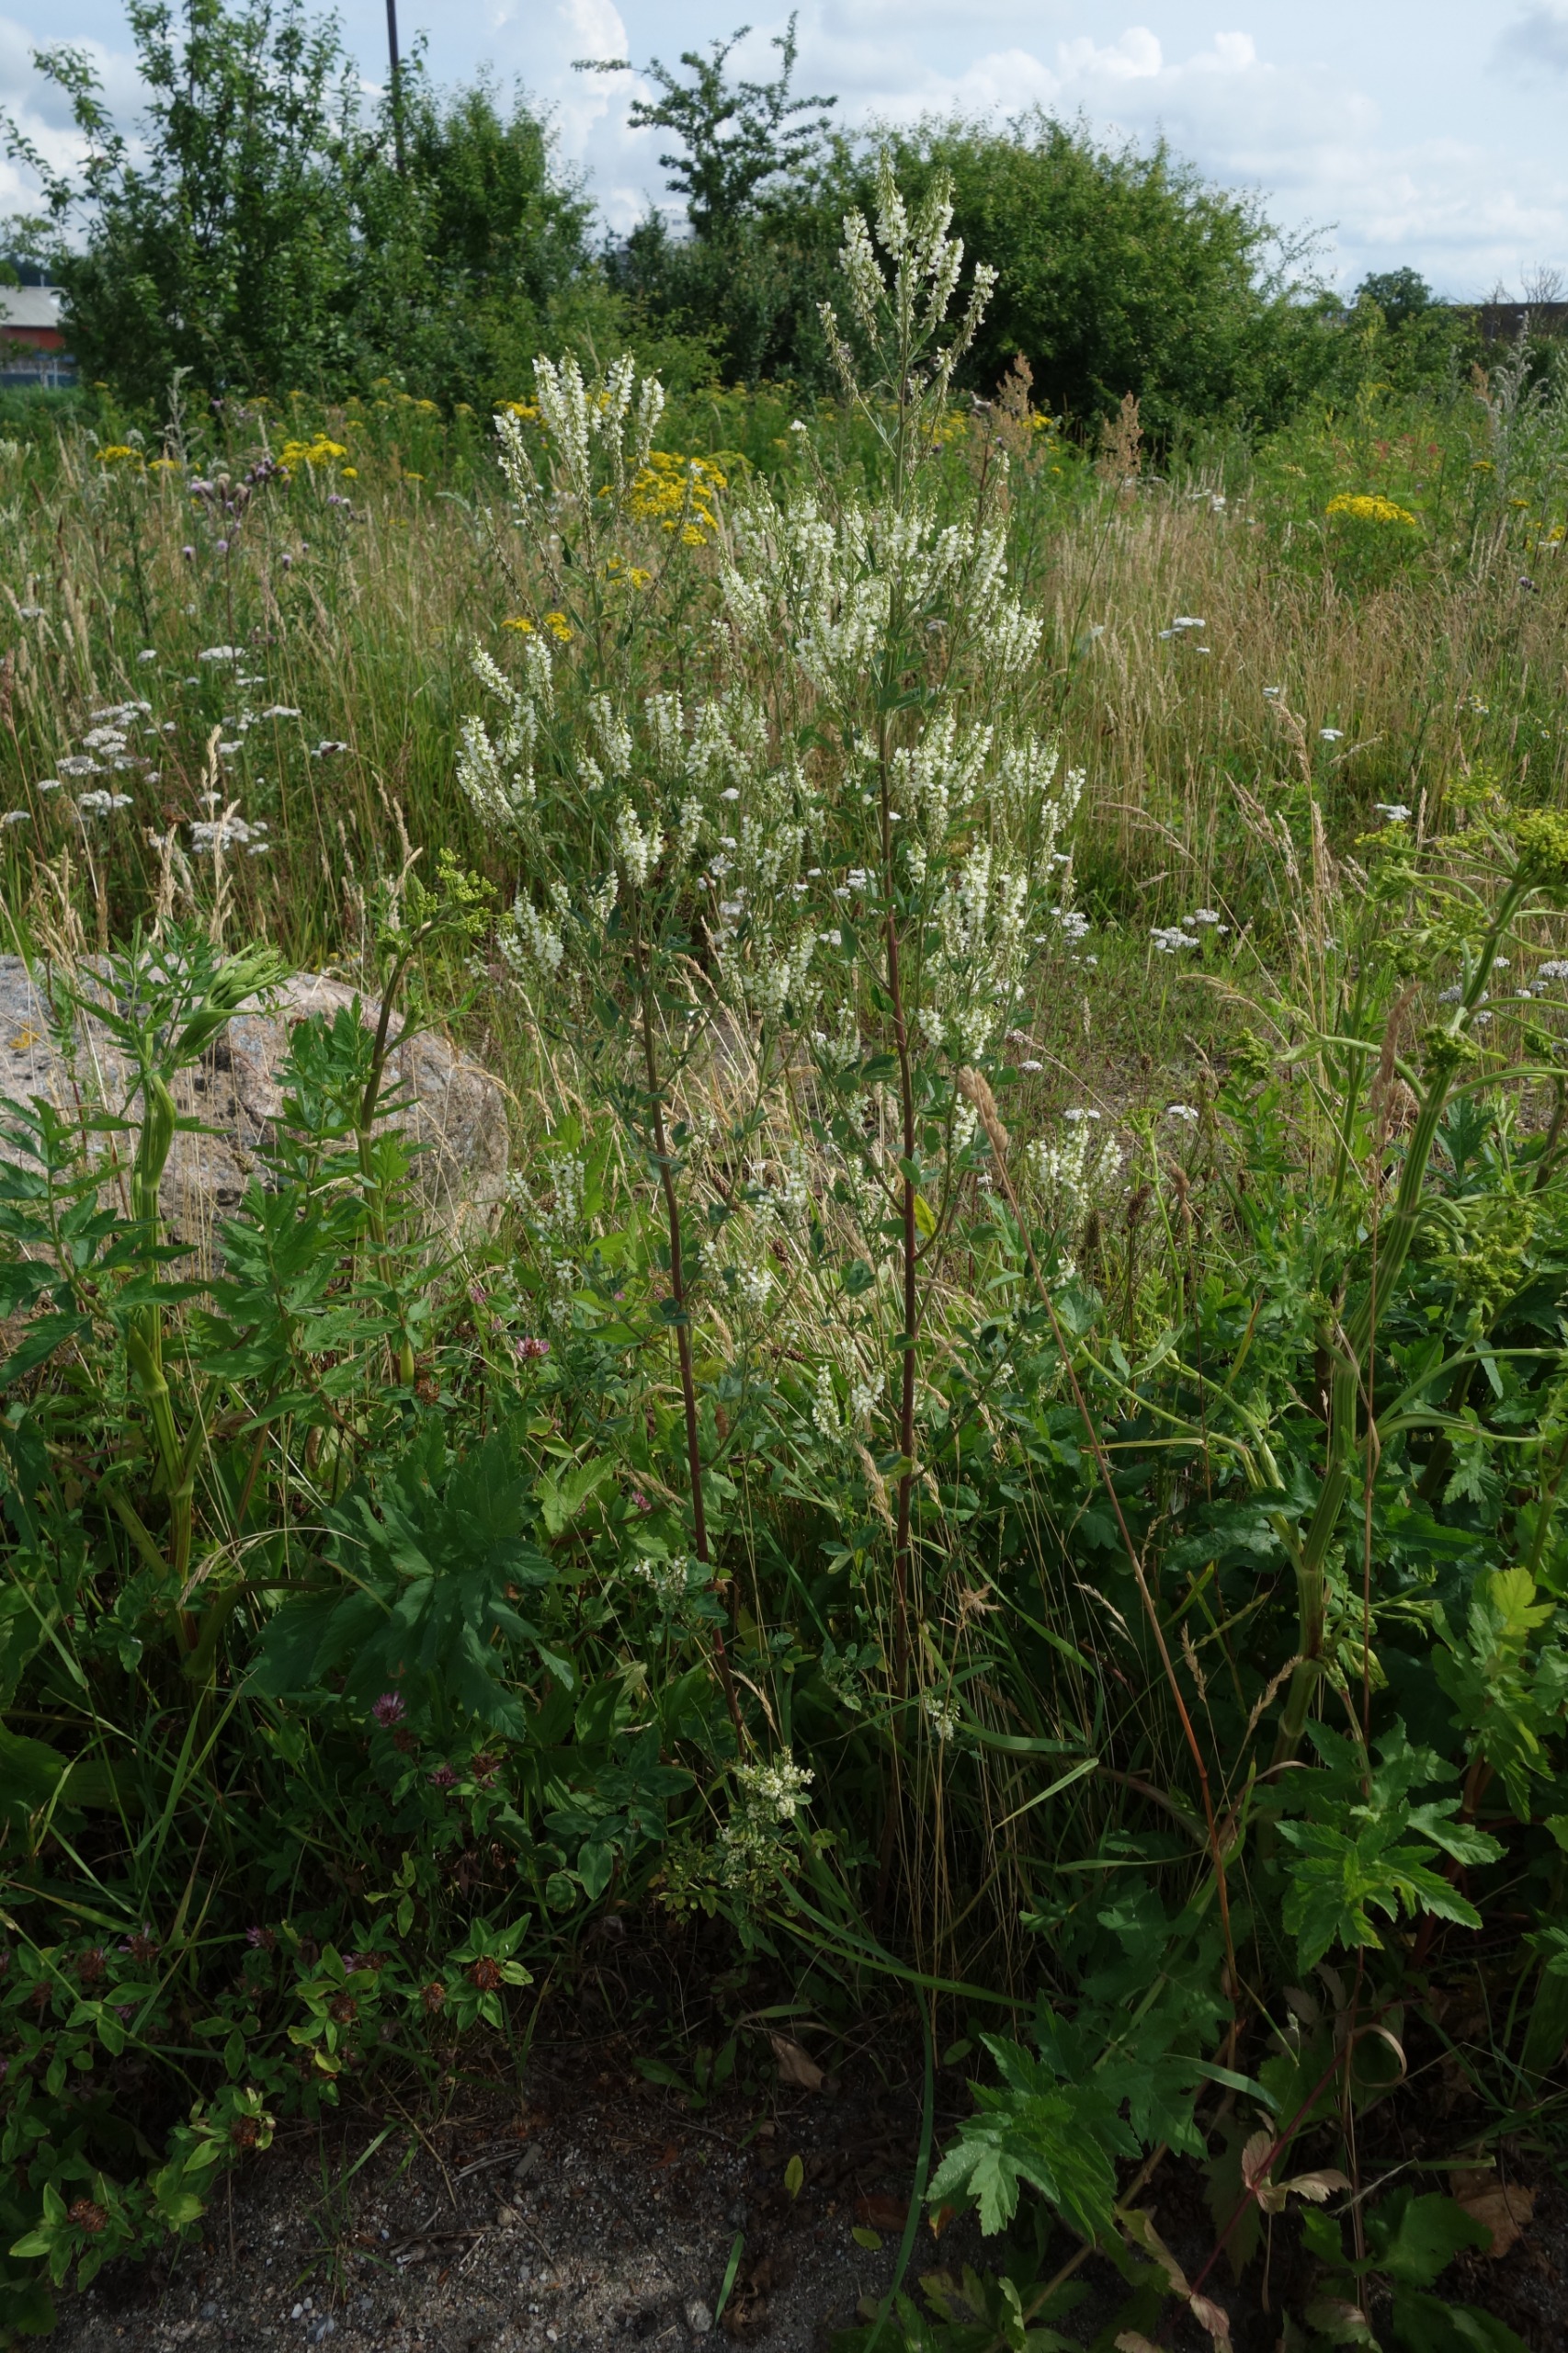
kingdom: Plantae
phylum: Tracheophyta
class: Magnoliopsida
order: Fabales
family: Fabaceae
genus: Melilotus
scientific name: Melilotus albus
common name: Hvid stenkløver
